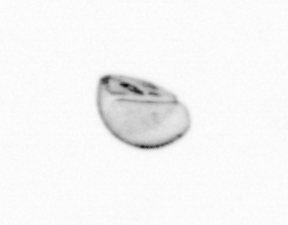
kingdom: Chromista
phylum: Ochrophyta
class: Bacillariophyceae
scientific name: Bacillariophyceae
